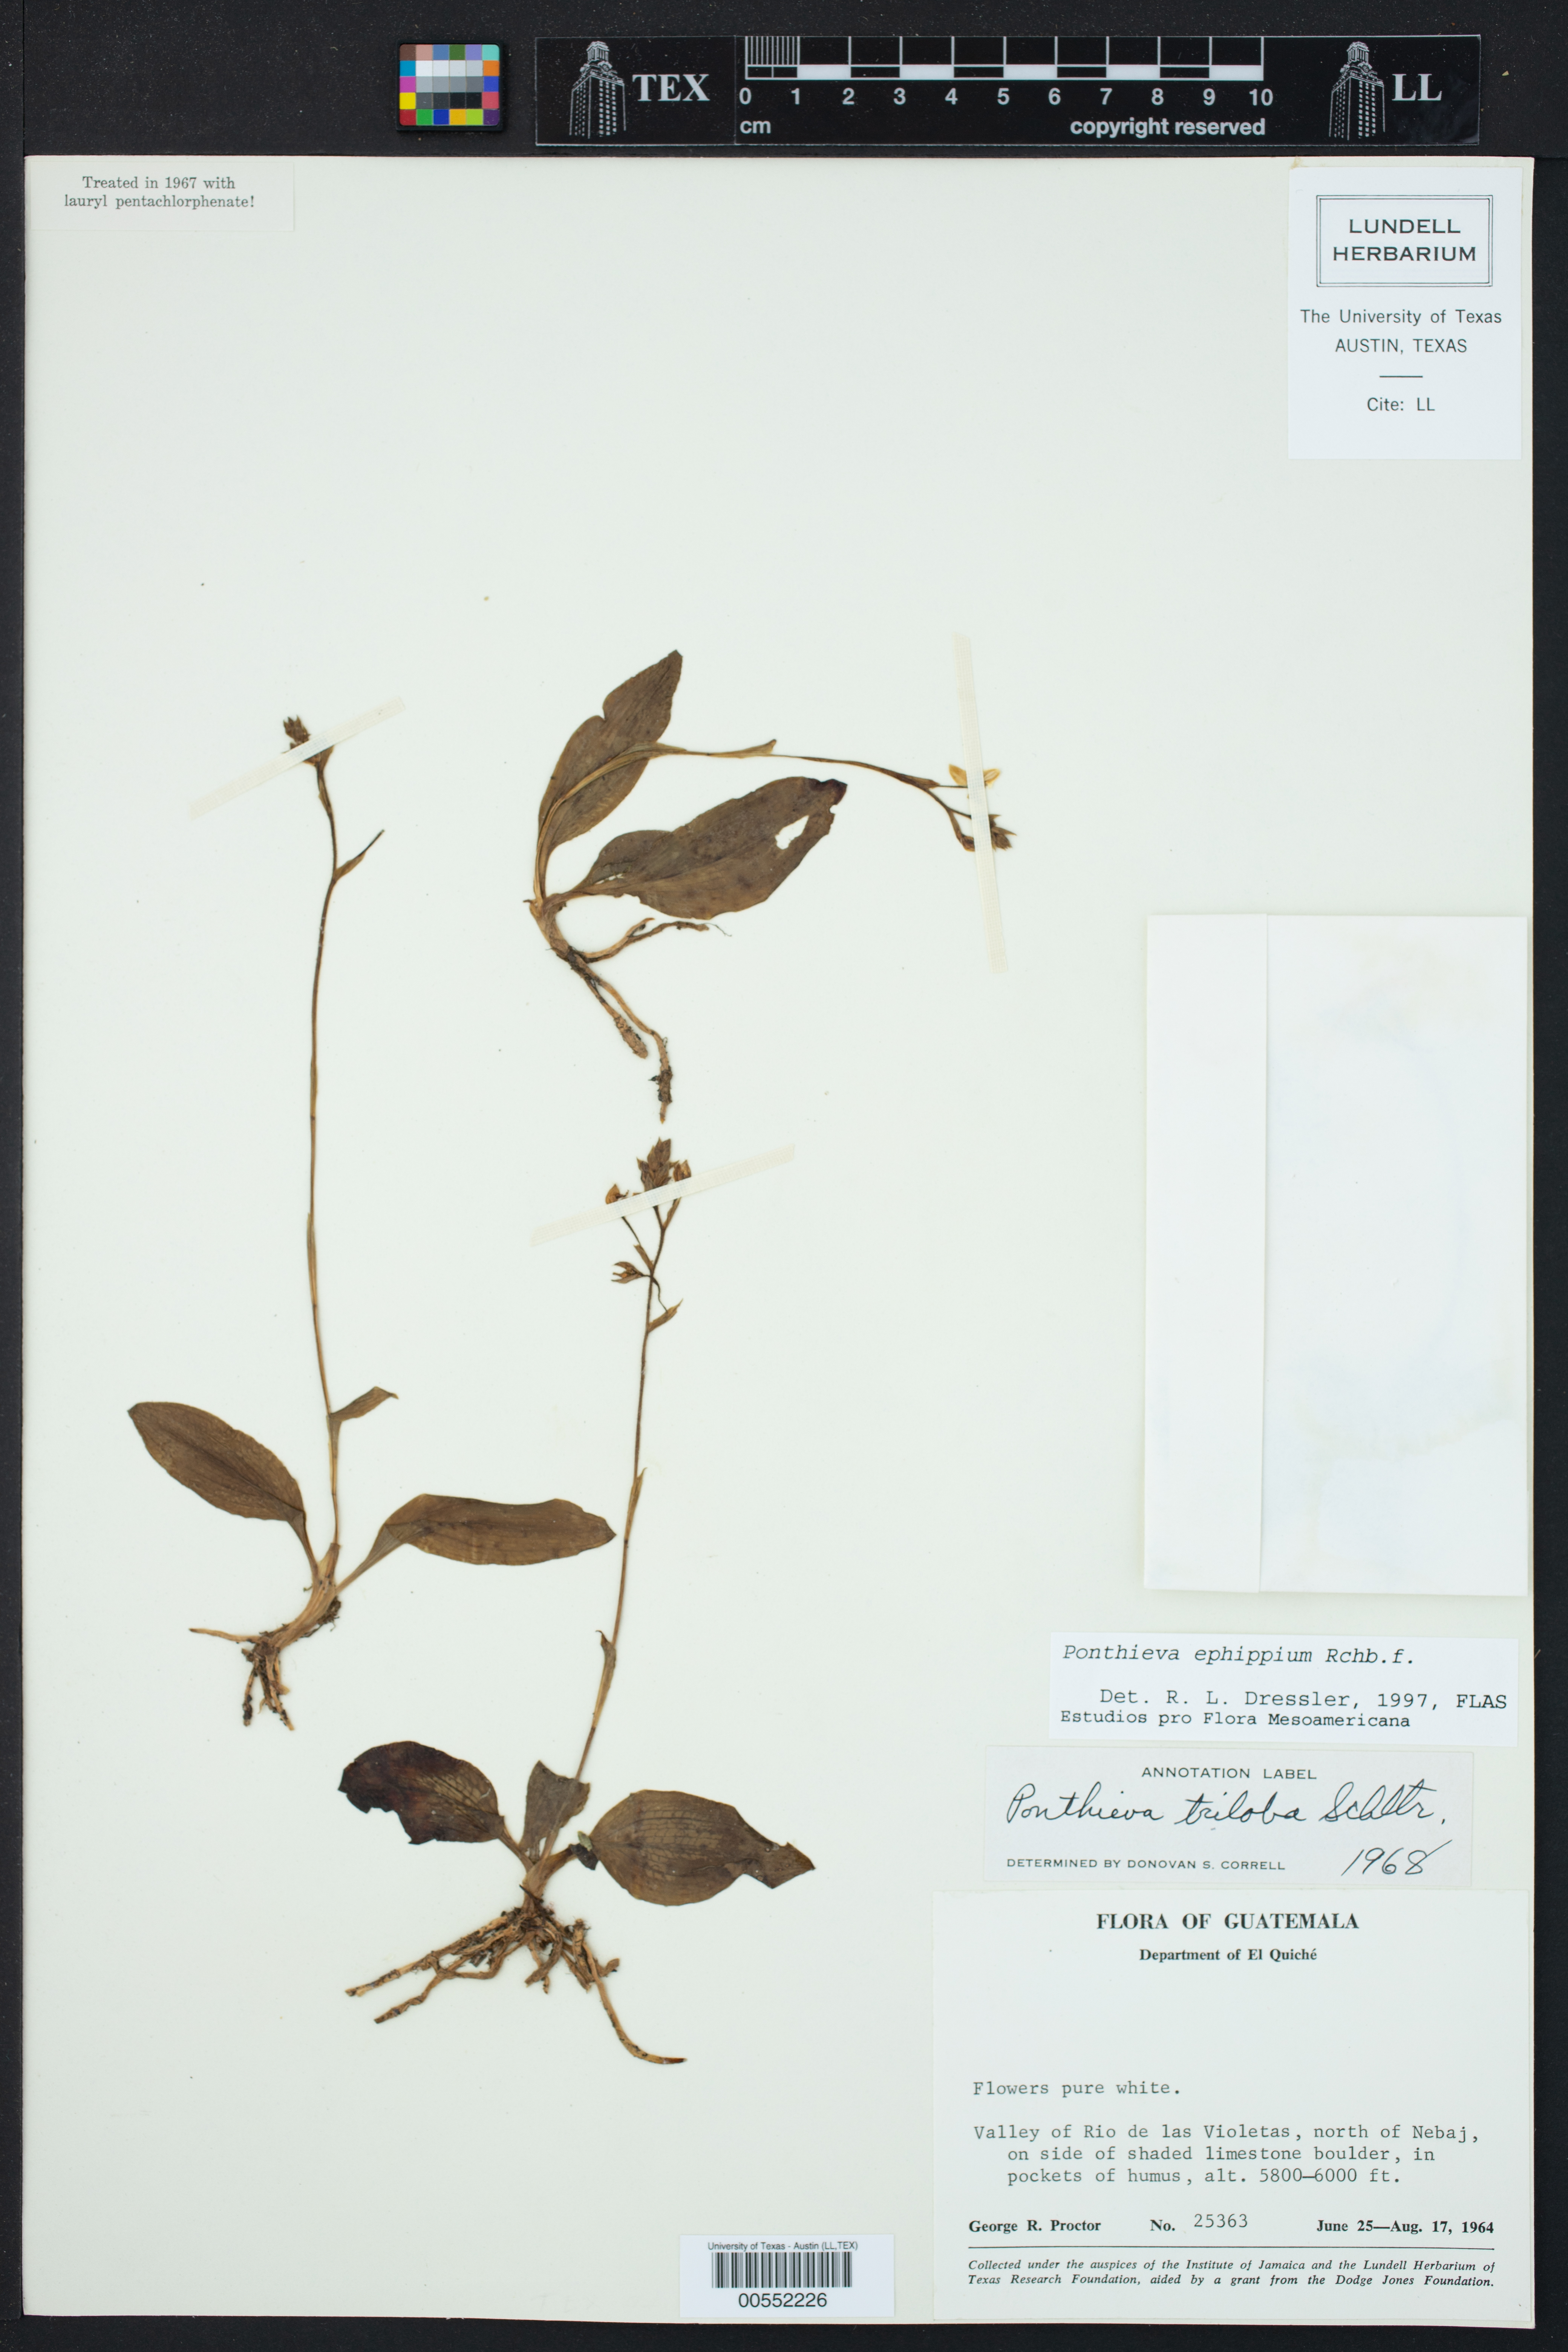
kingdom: Plantae
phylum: Tracheophyta
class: Liliopsida
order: Asparagales
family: Orchidaceae
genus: Ponthieva
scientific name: Ponthieva ephippium
